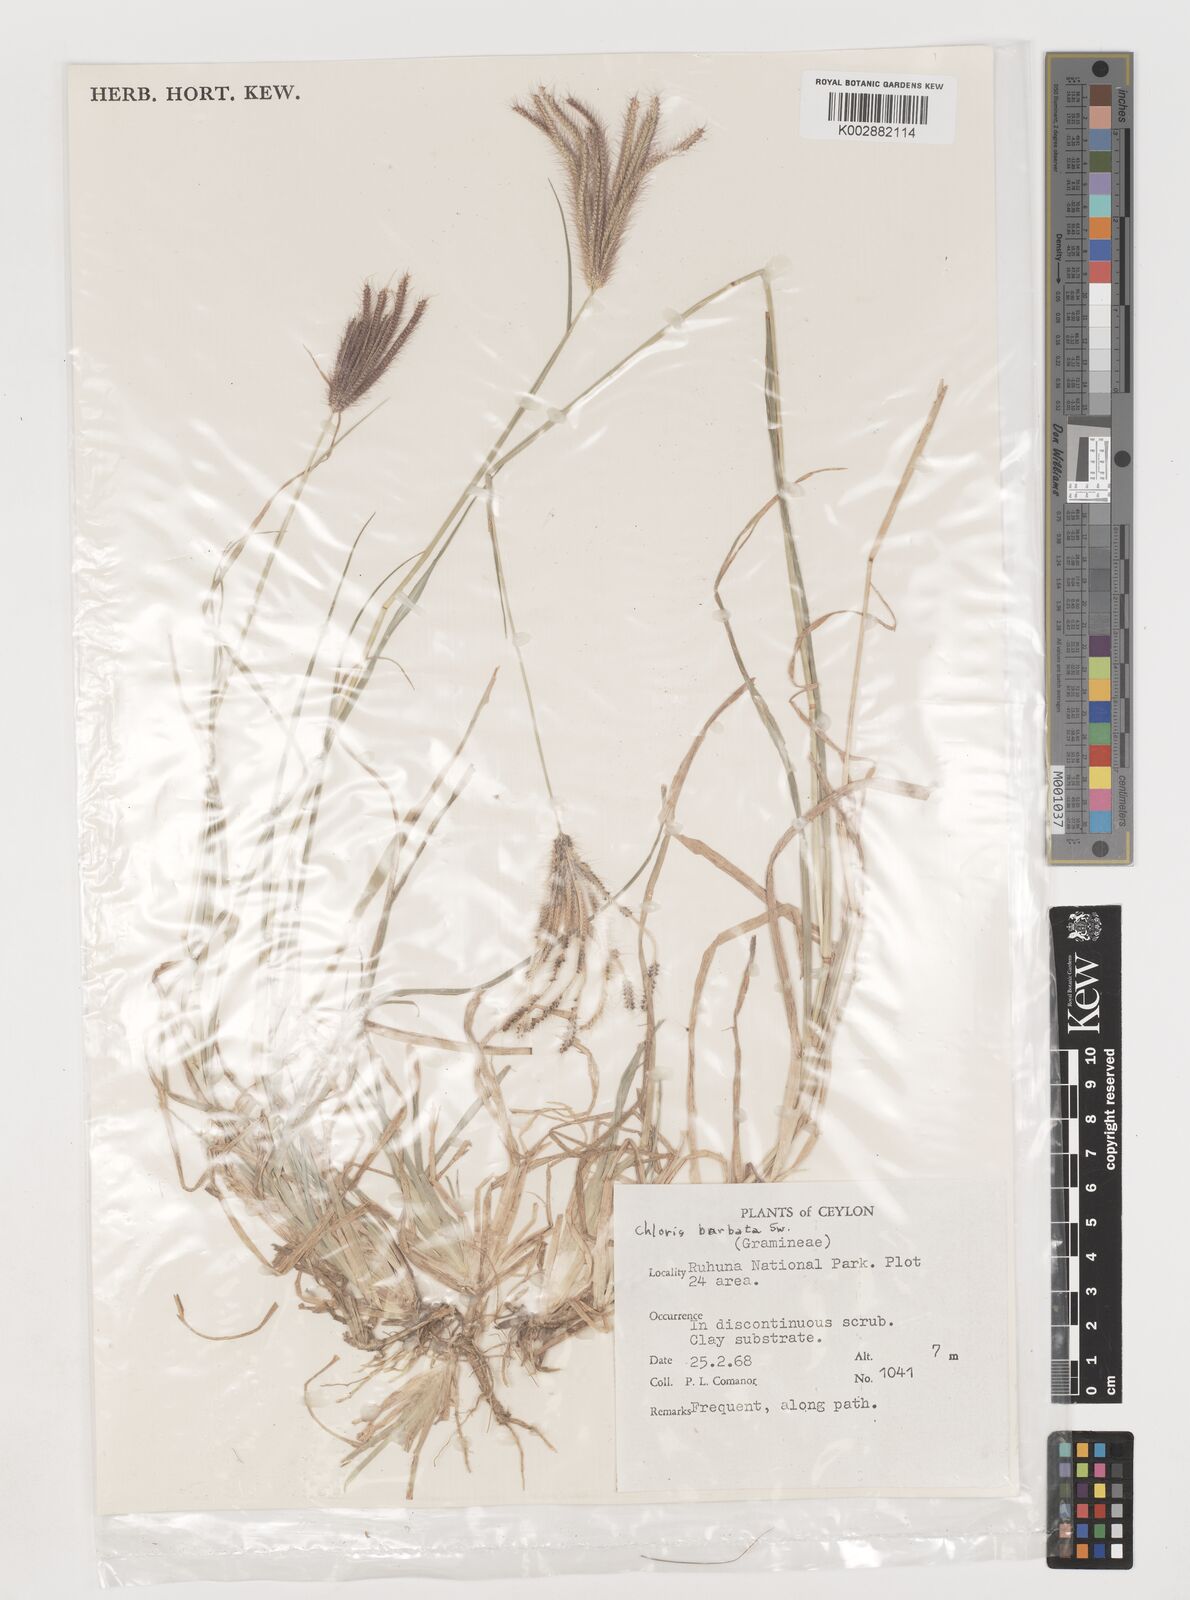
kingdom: Plantae
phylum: Tracheophyta
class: Liliopsida
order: Poales
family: Poaceae
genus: Chloris
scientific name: Chloris barbata
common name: Swollen fingergrass
